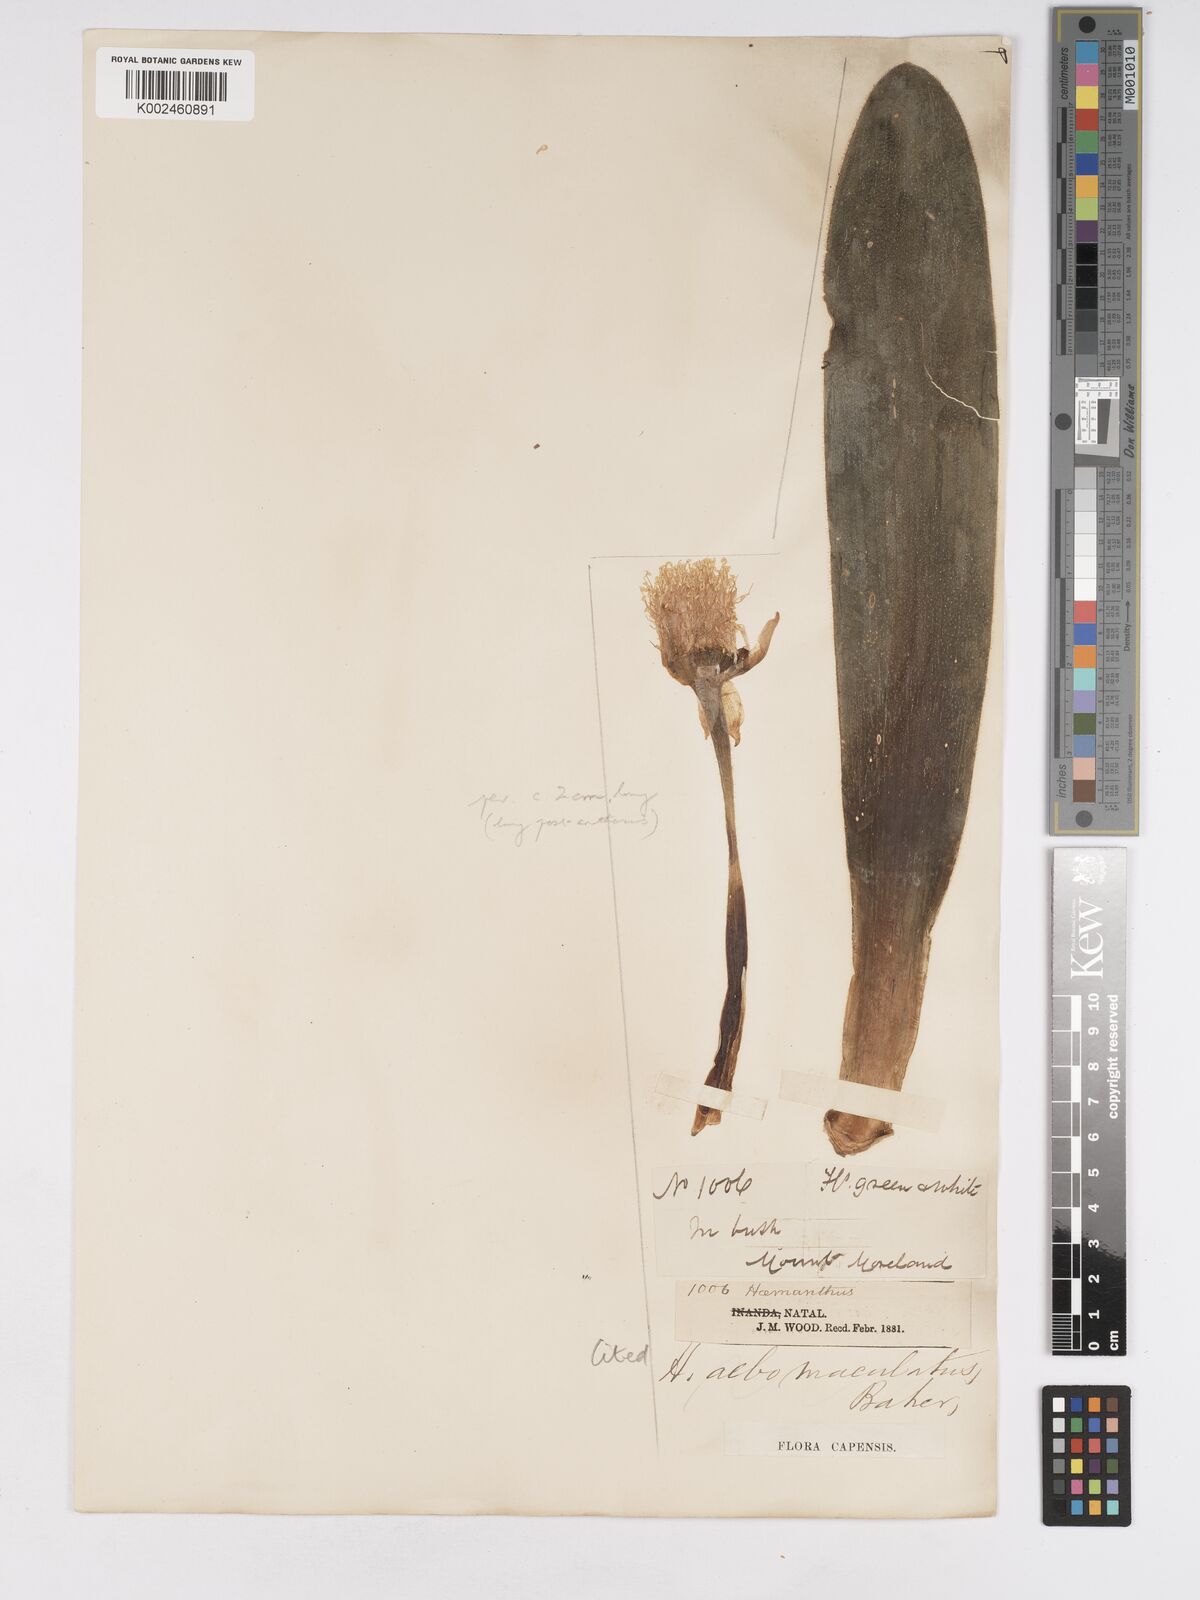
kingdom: Plantae
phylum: Tracheophyta
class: Liliopsida
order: Asparagales
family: Amaryllidaceae
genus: Haemanthus
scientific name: Haemanthus albiflos
